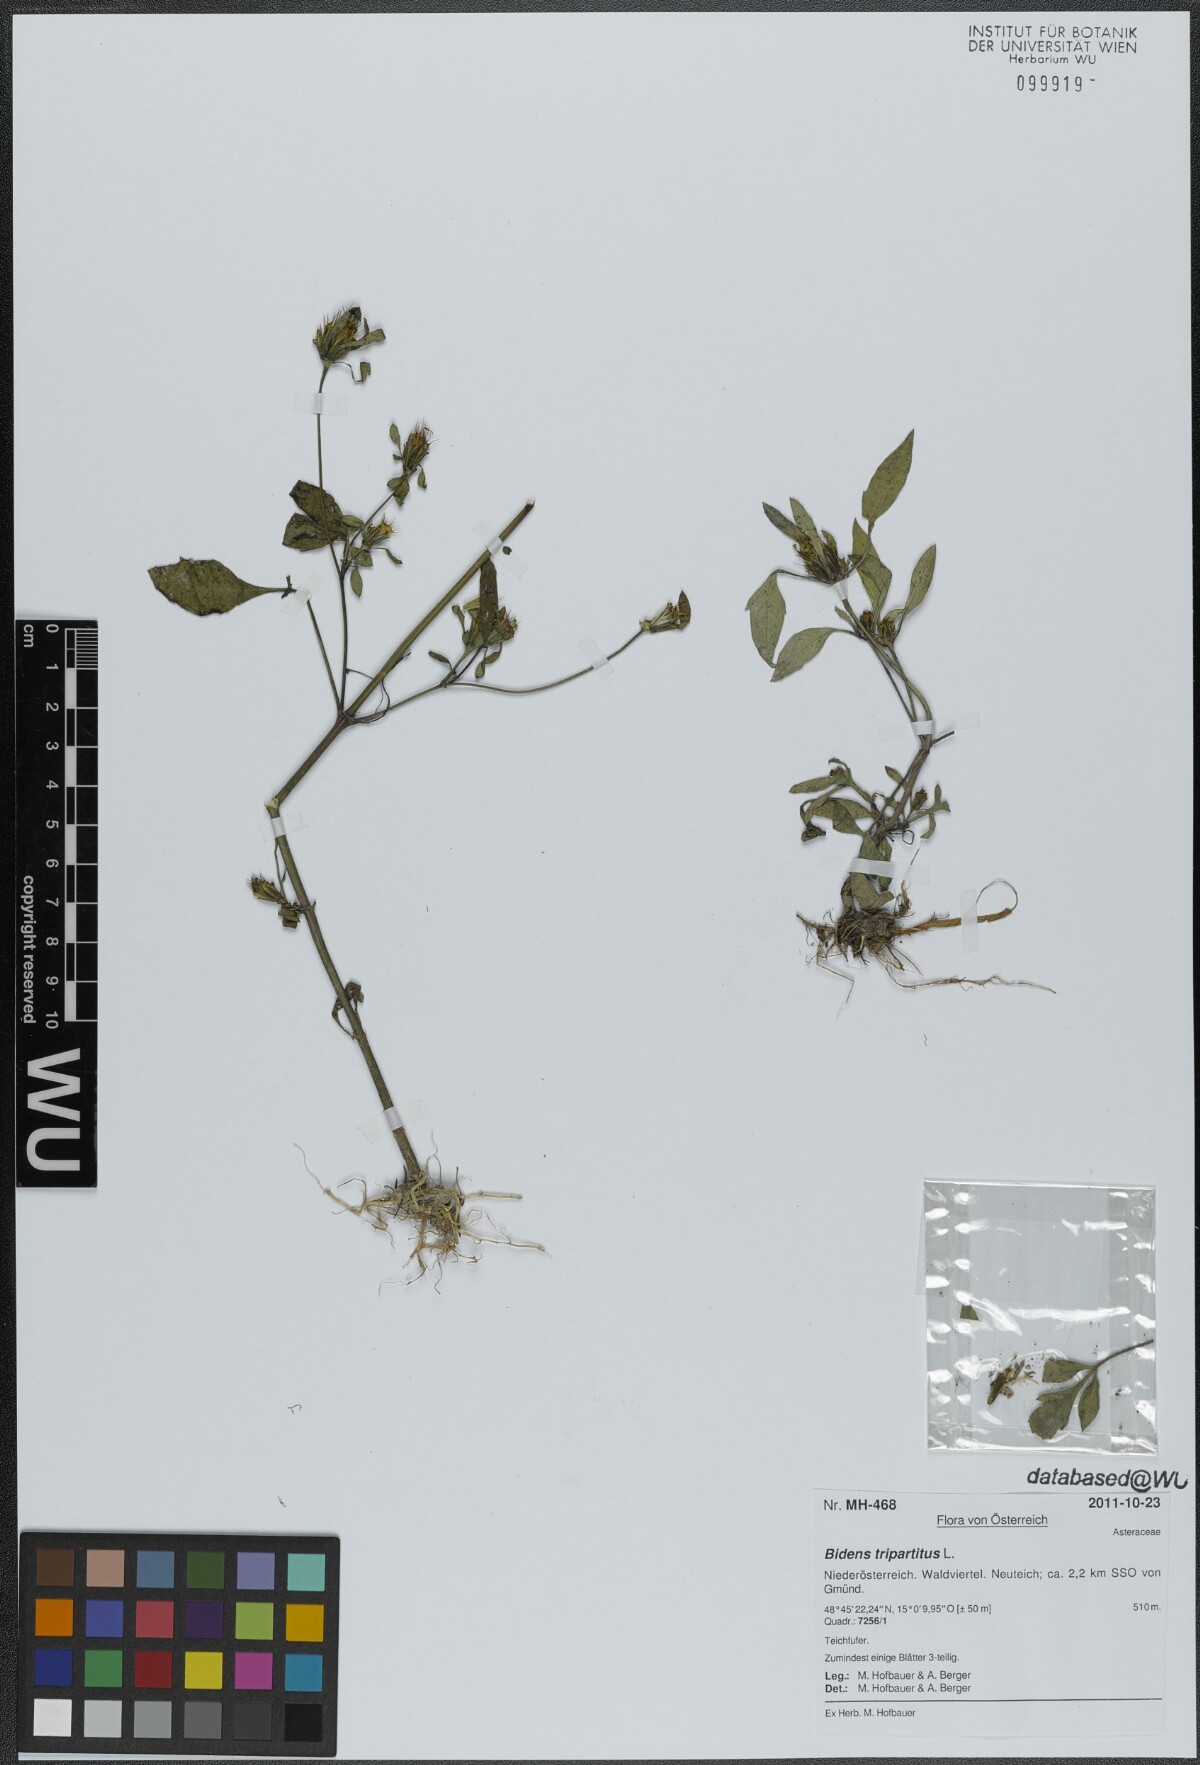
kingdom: Plantae
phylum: Tracheophyta
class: Magnoliopsida
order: Asterales
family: Asteraceae
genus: Bidens
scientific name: Bidens tripartita
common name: Trifid bur-marigold
